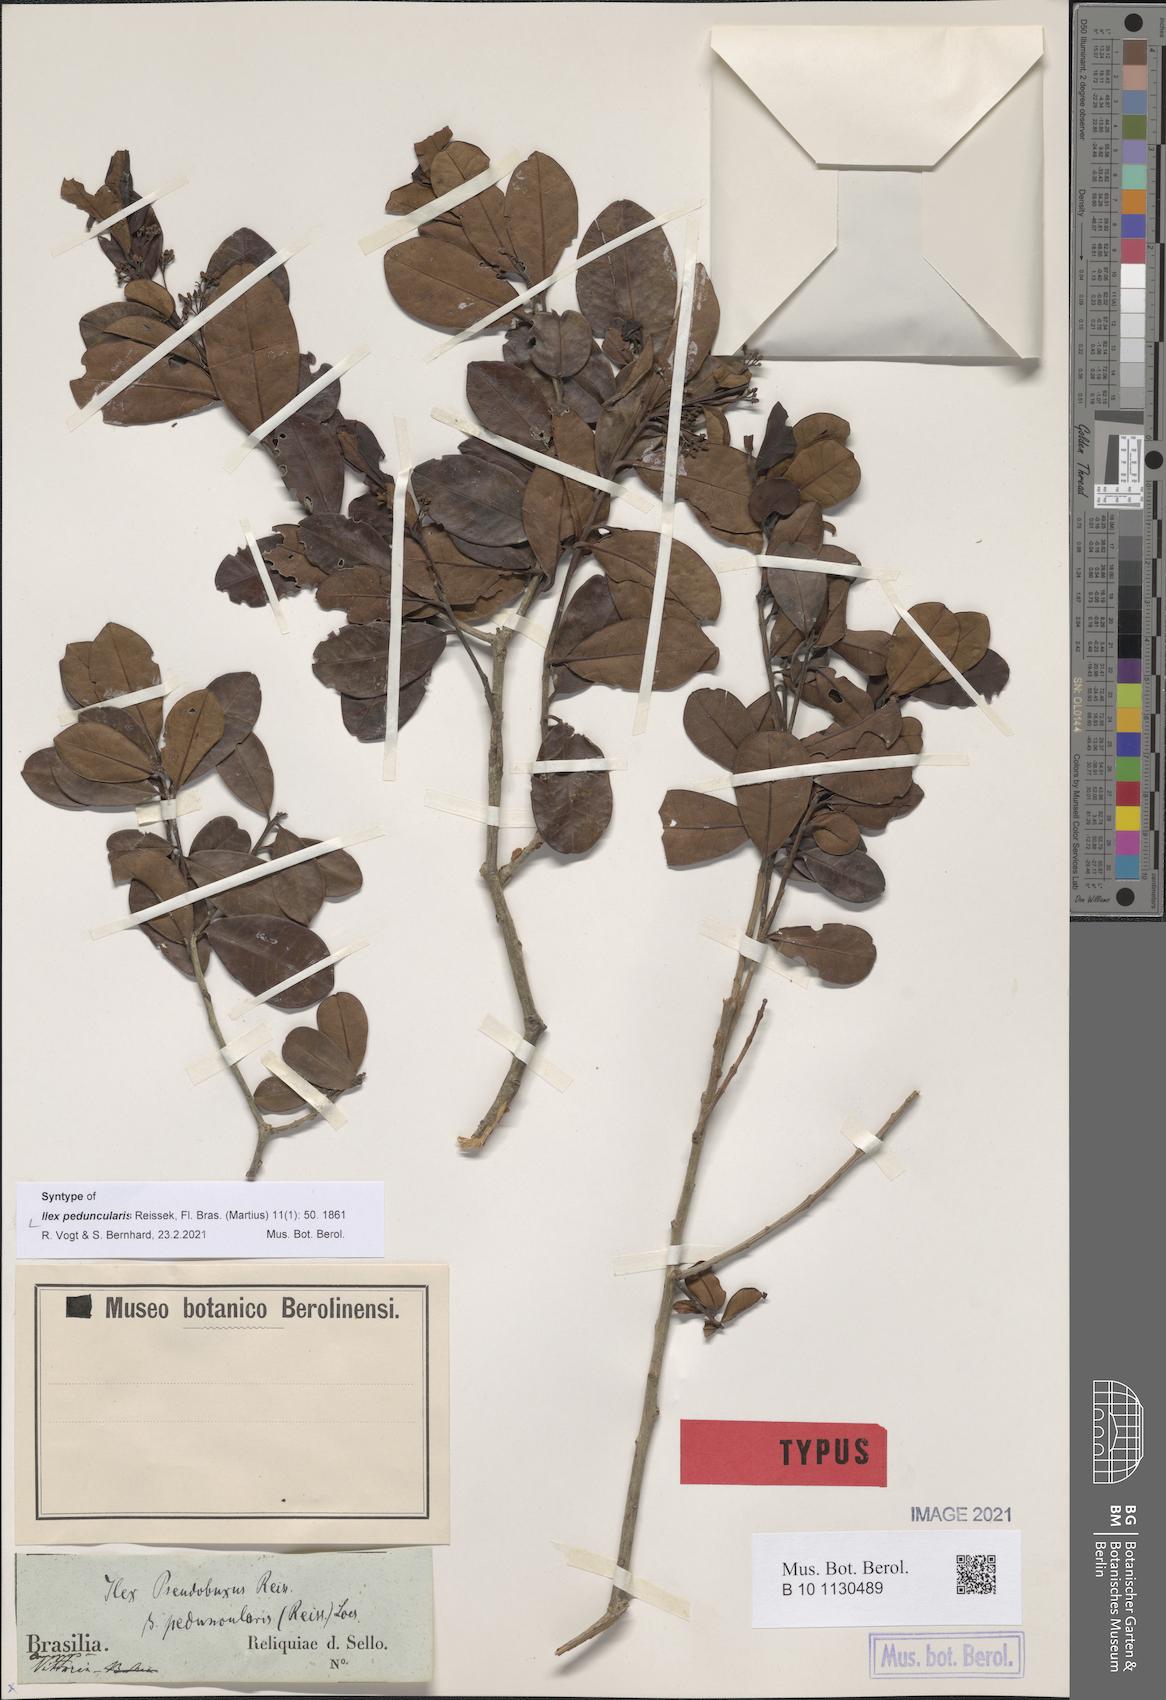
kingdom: Plantae
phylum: Tracheophyta
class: Magnoliopsida
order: Aquifoliales
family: Aquifoliaceae
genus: Ilex
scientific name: Ilex pseudobuxus
